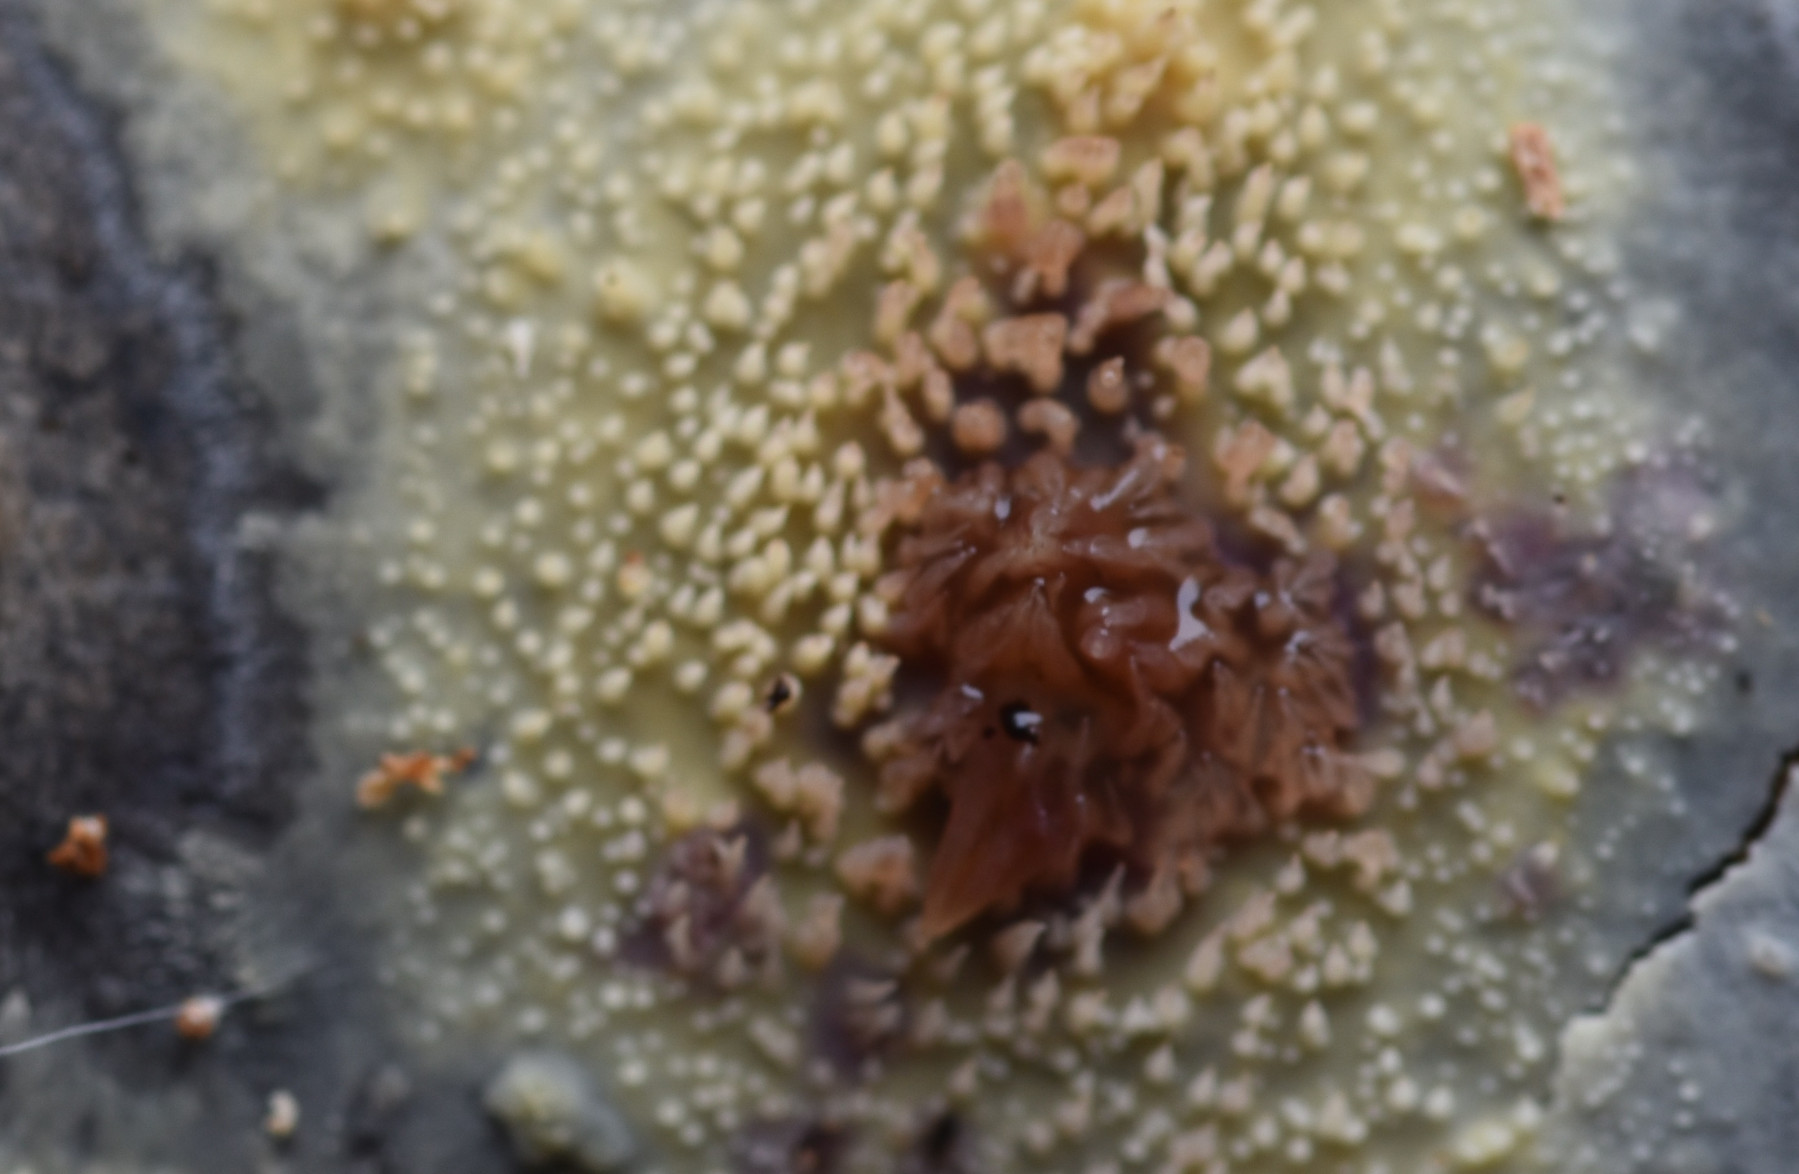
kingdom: Fungi
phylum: Basidiomycota
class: Agaricomycetes
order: Polyporales
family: Meruliaceae
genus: Mycoacia
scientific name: Mycoacia uda
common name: citrongul vokspig
